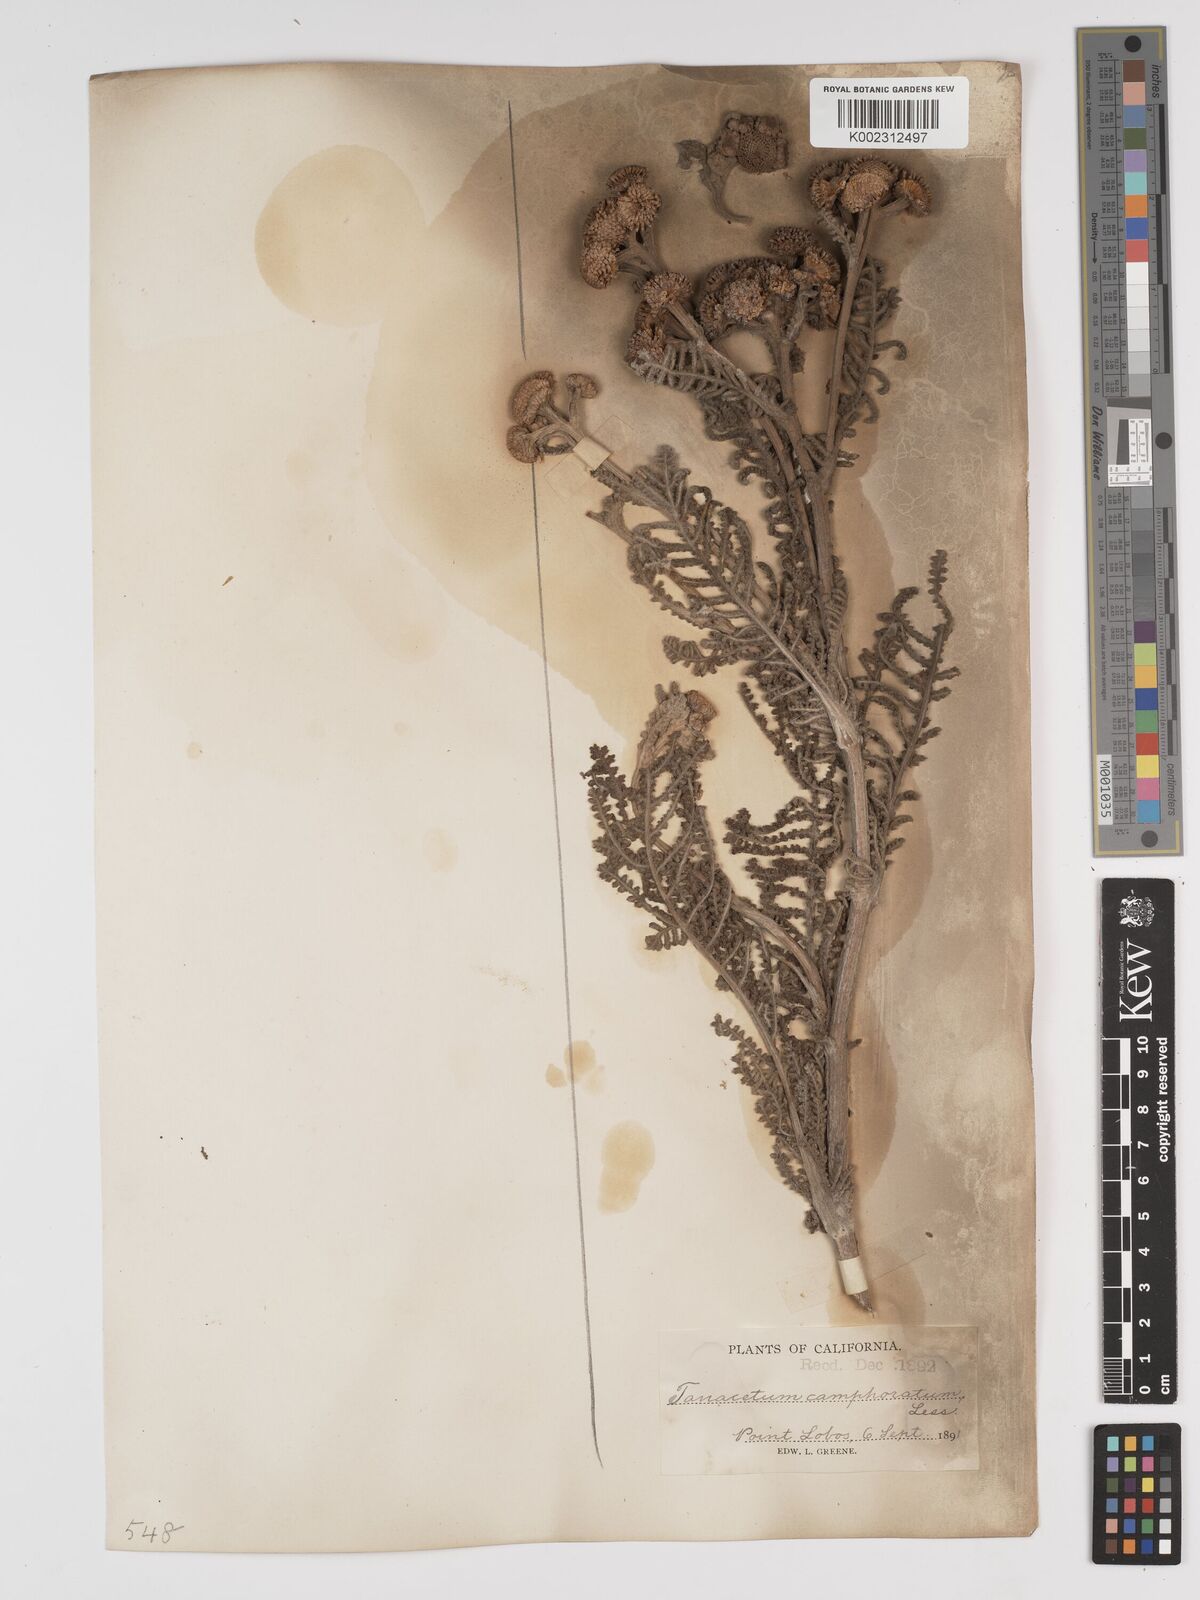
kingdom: Plantae
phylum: Tracheophyta
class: Magnoliopsida
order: Asterales
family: Asteraceae
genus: Tanacetum
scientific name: Tanacetum bipinnatum
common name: Dwarf tansy
